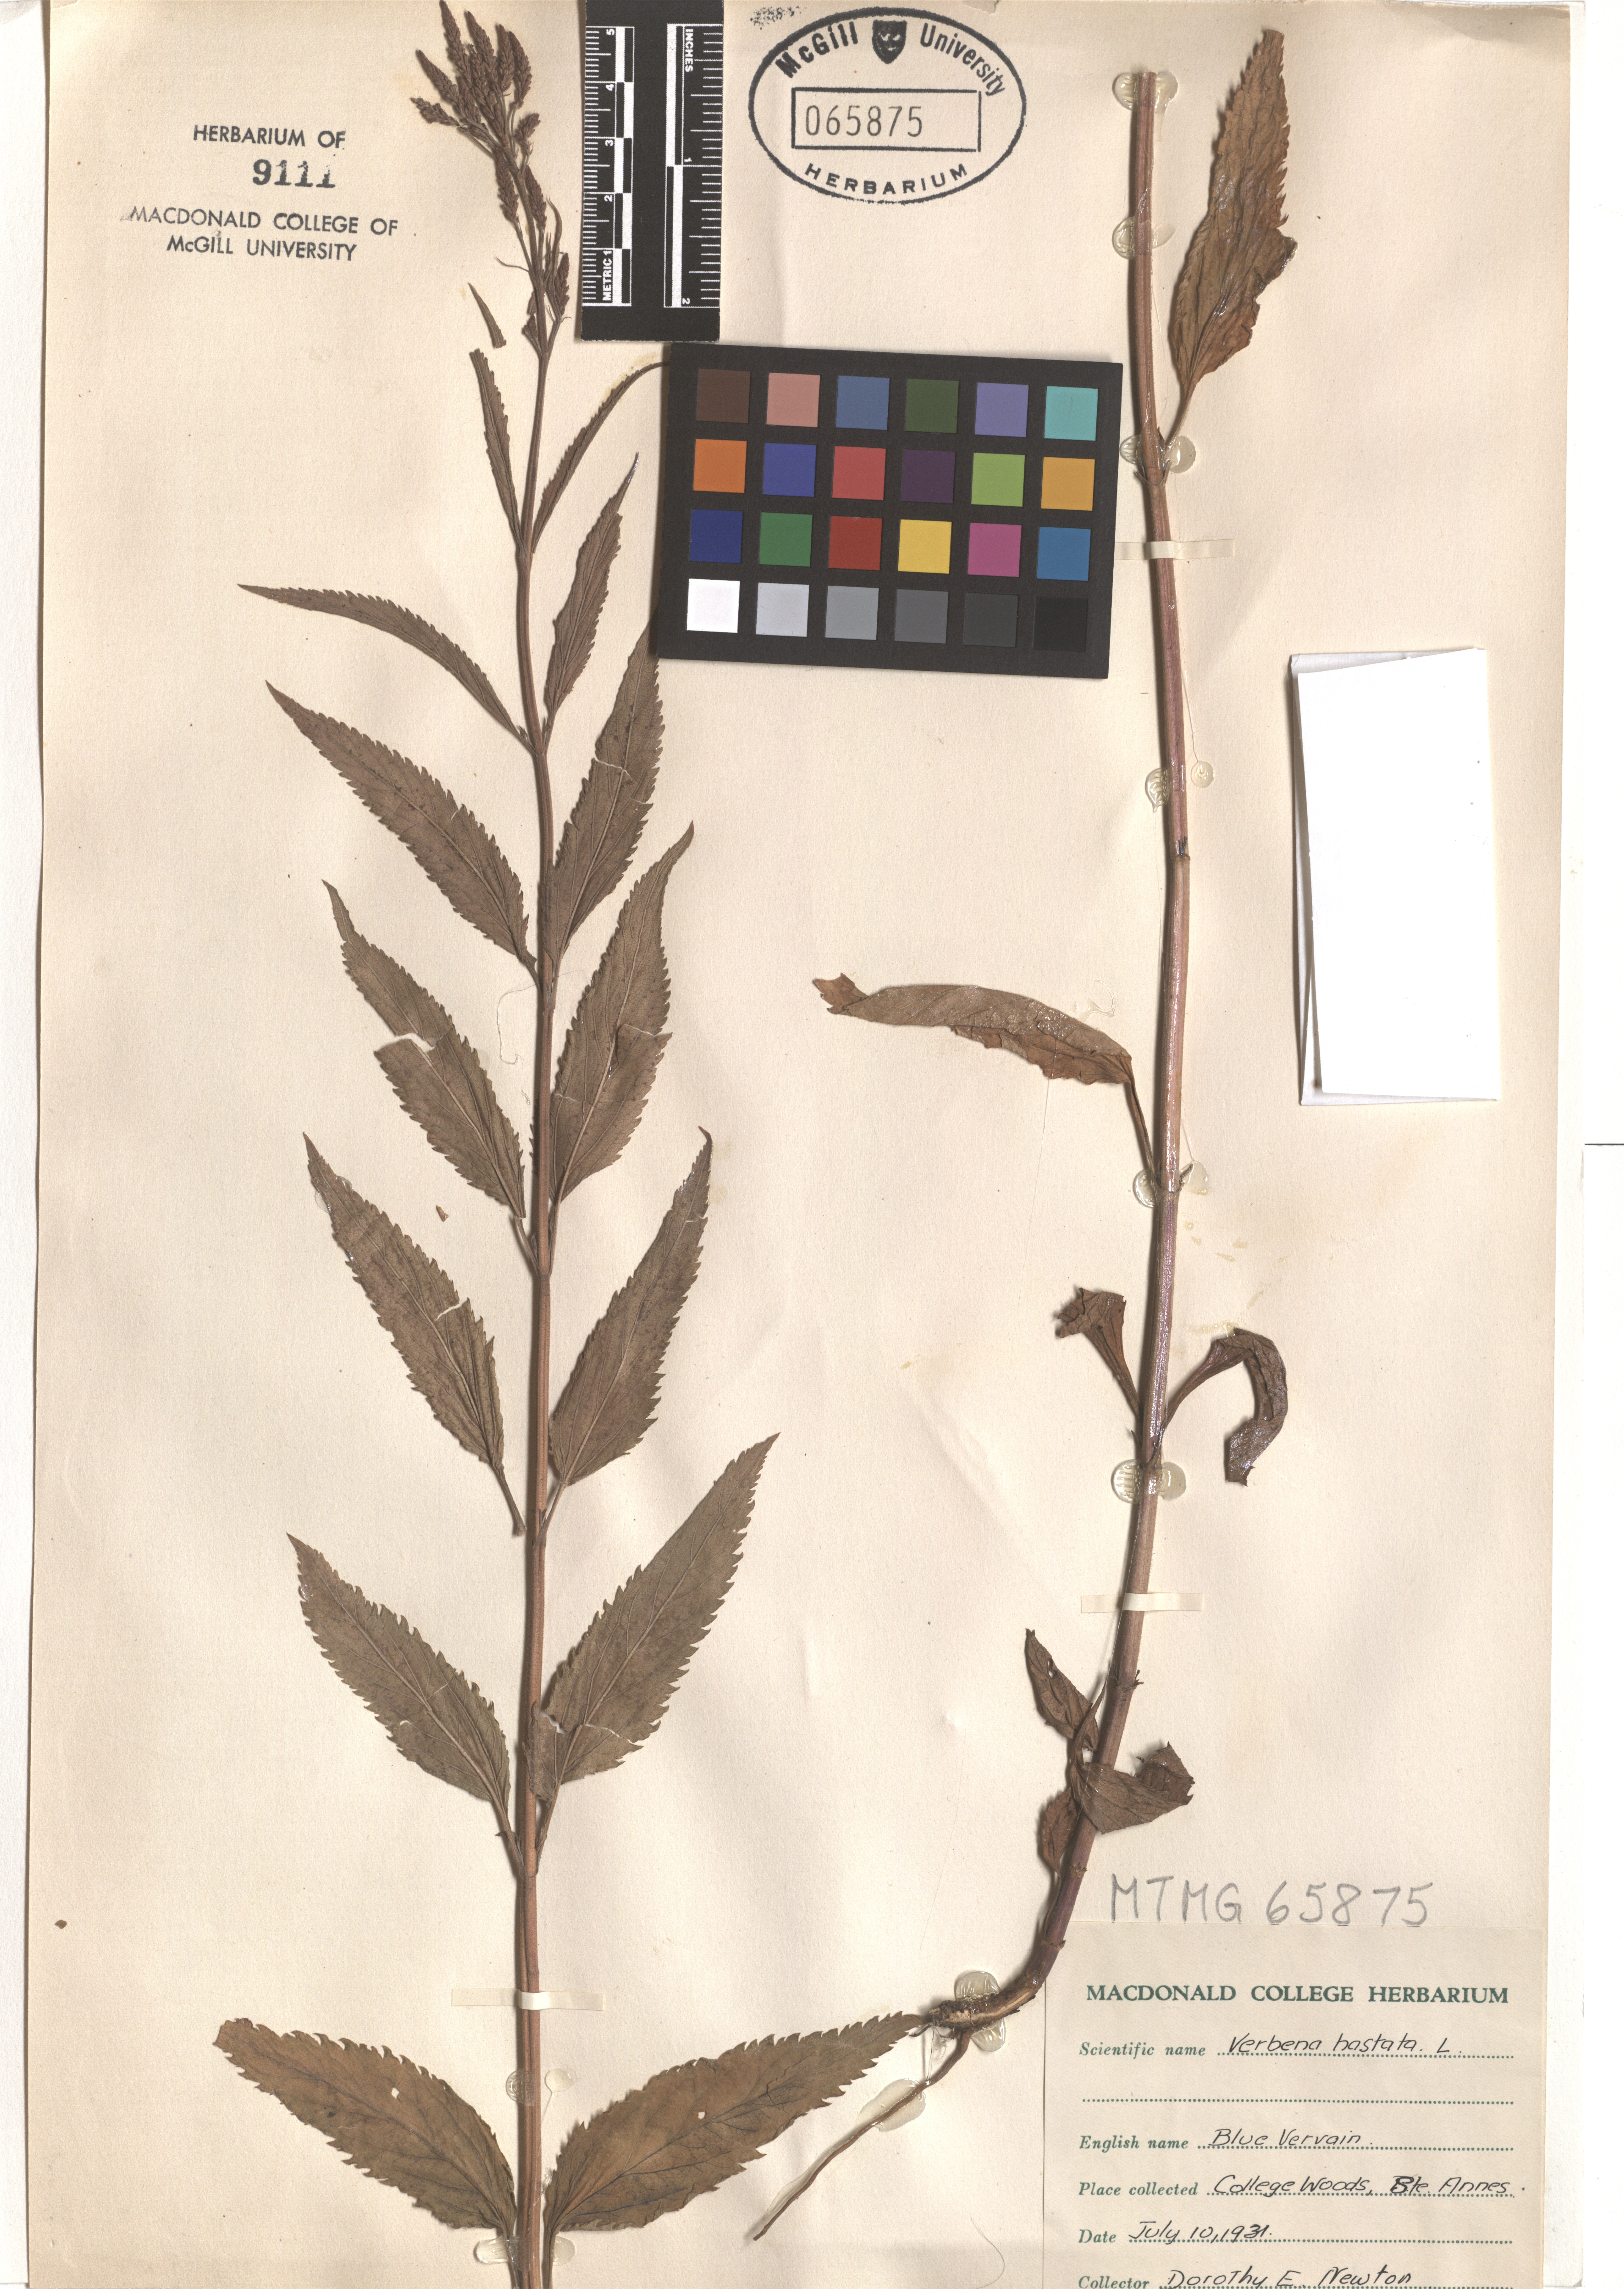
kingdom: Plantae
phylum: Tracheophyta
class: Magnoliopsida
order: Lamiales
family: Verbenaceae
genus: Verbena
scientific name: Verbena hastata
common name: American blue vervain
